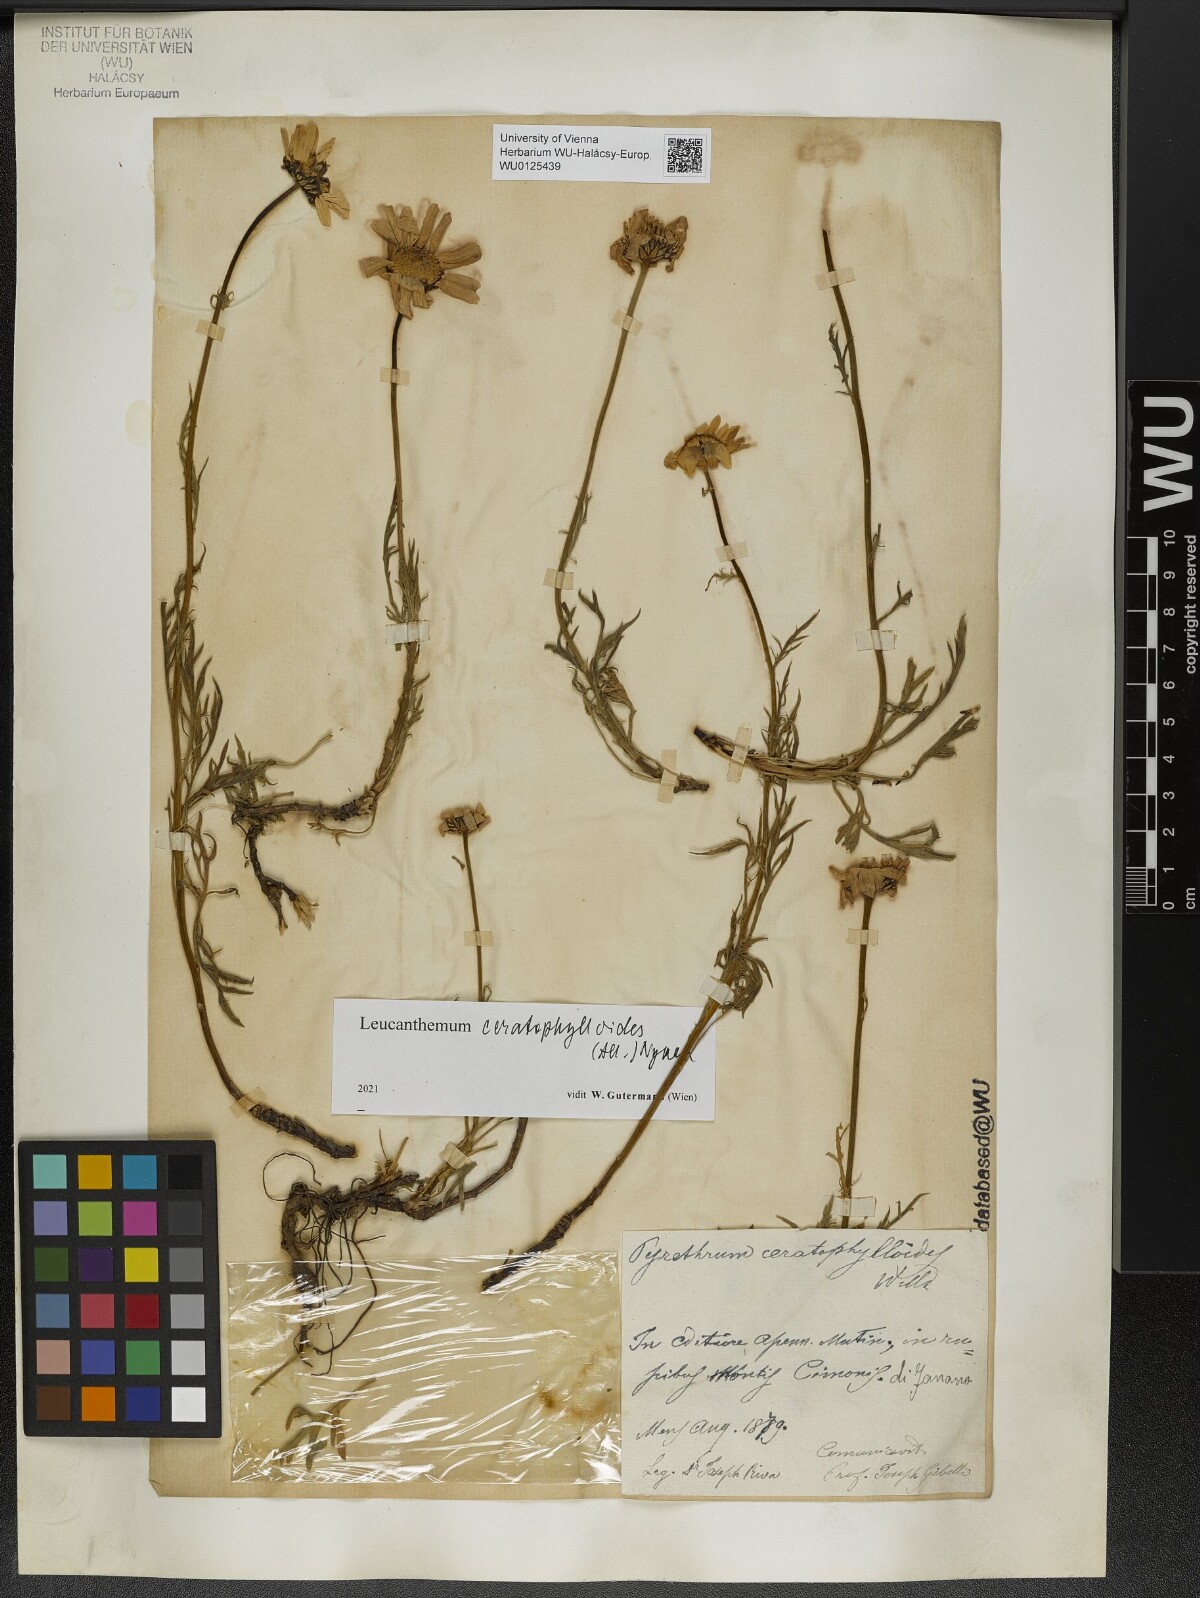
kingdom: Plantae
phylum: Tracheophyta
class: Magnoliopsida
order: Asterales
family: Asteraceae
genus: Leucanthemum
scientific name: Leucanthemum coronopifolium
